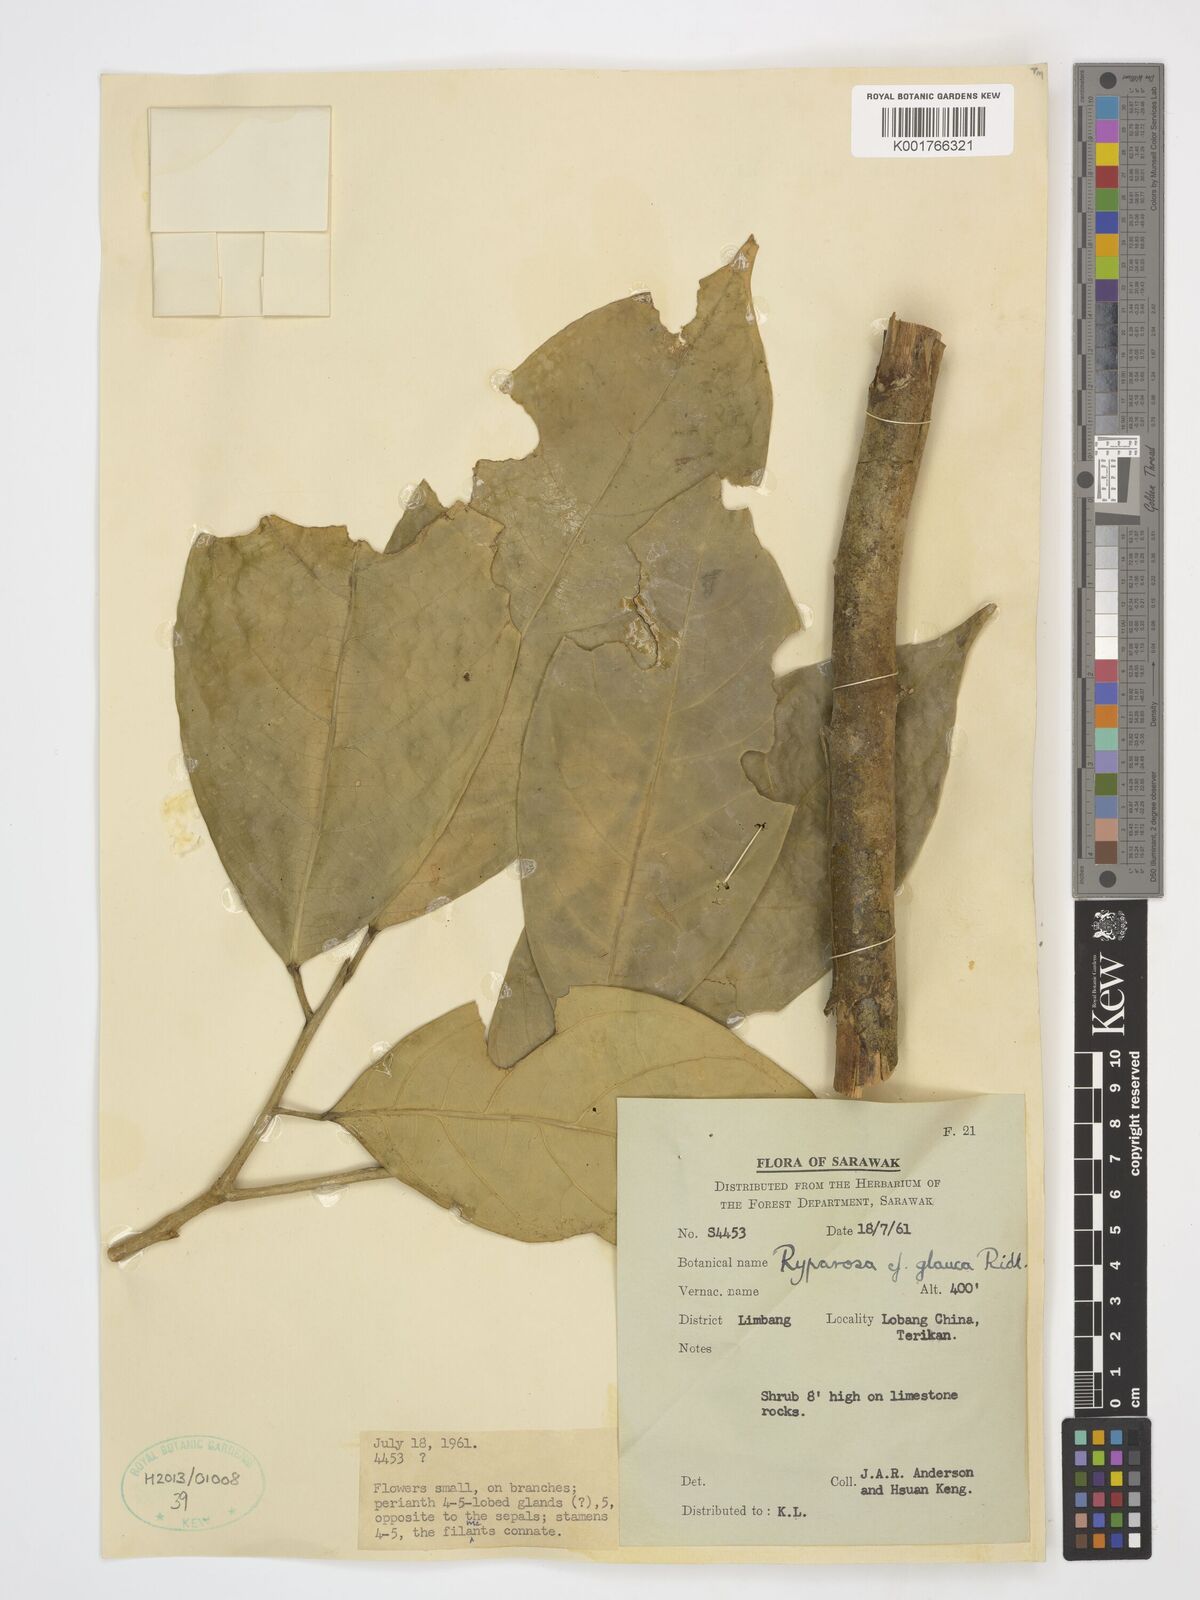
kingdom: Plantae
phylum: Tracheophyta
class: Magnoliopsida
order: Malpighiales
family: Achariaceae
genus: Ryparosa
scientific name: Ryparosa glauca
